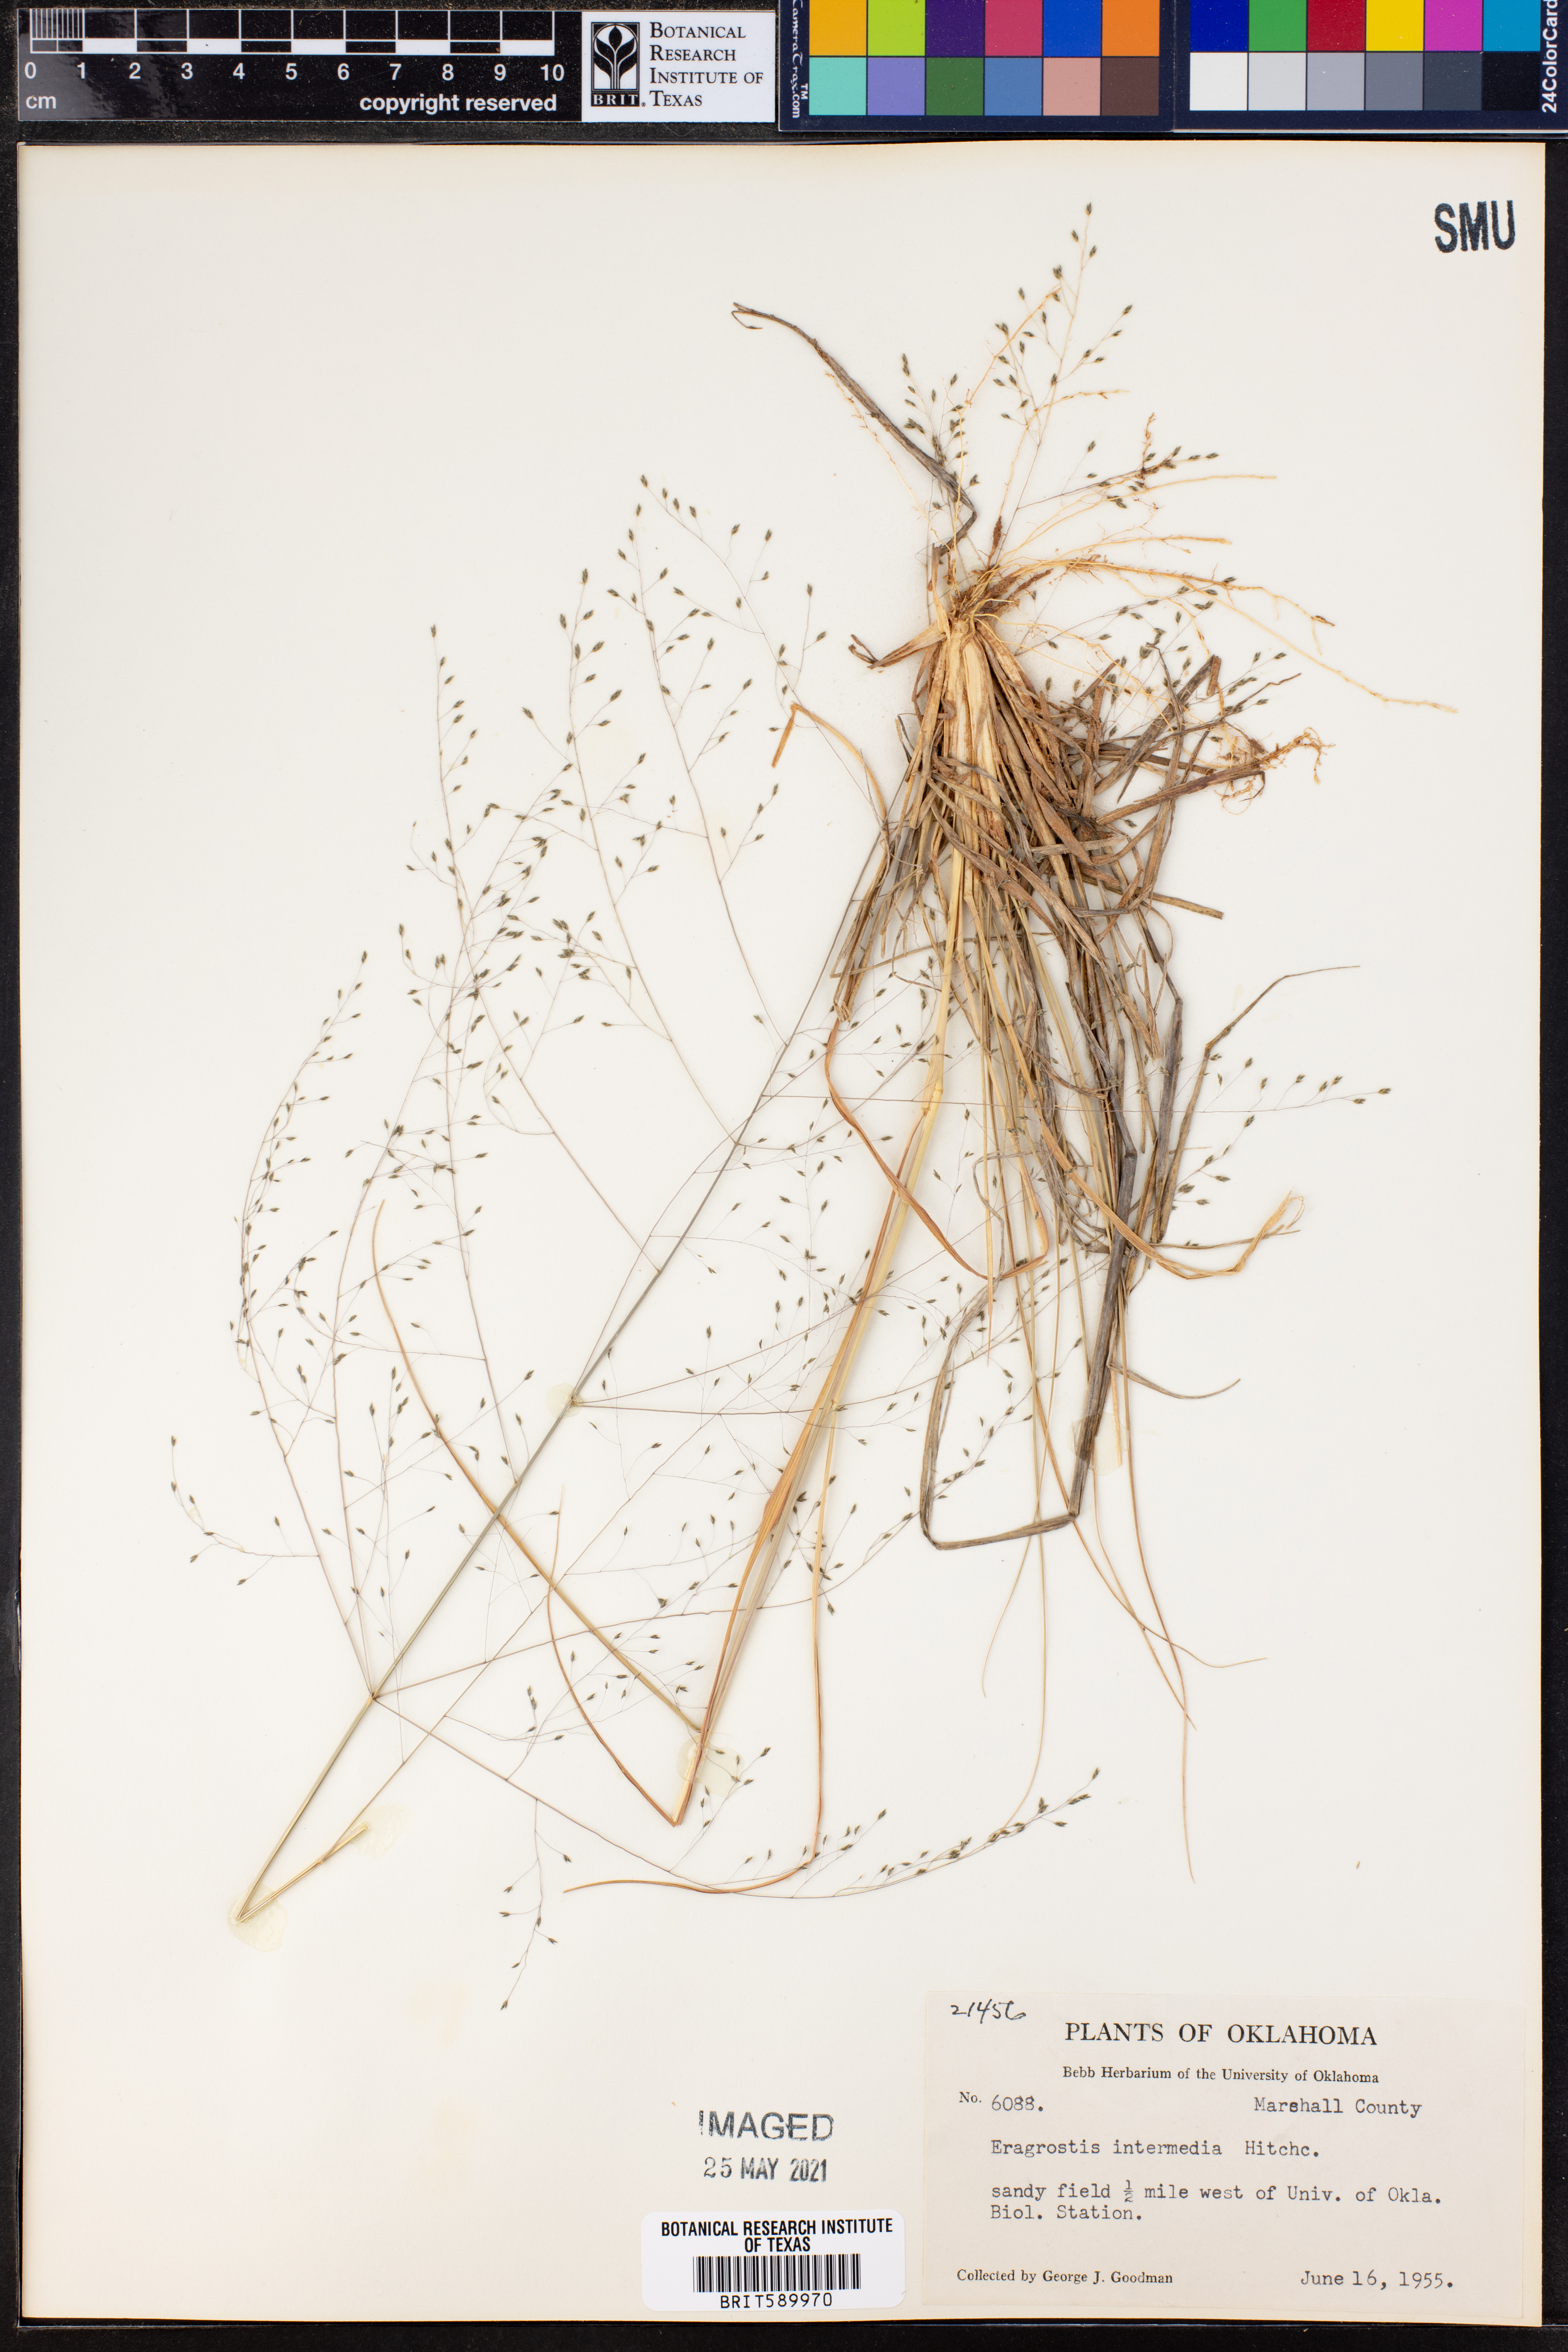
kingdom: Plantae
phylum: Tracheophyta
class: Liliopsida
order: Poales
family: Poaceae
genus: Eragrostis
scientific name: Eragrostis intermedia
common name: Plains love grass
